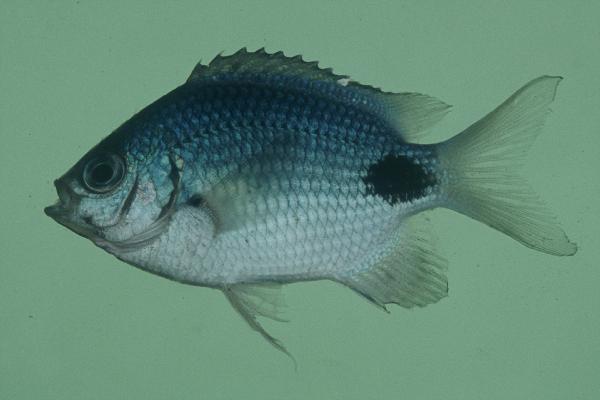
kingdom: Animalia
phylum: Chordata
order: Perciformes
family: Pomacentridae
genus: Abudefduf
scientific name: Abudefduf sparoides
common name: False-eye sergeant
